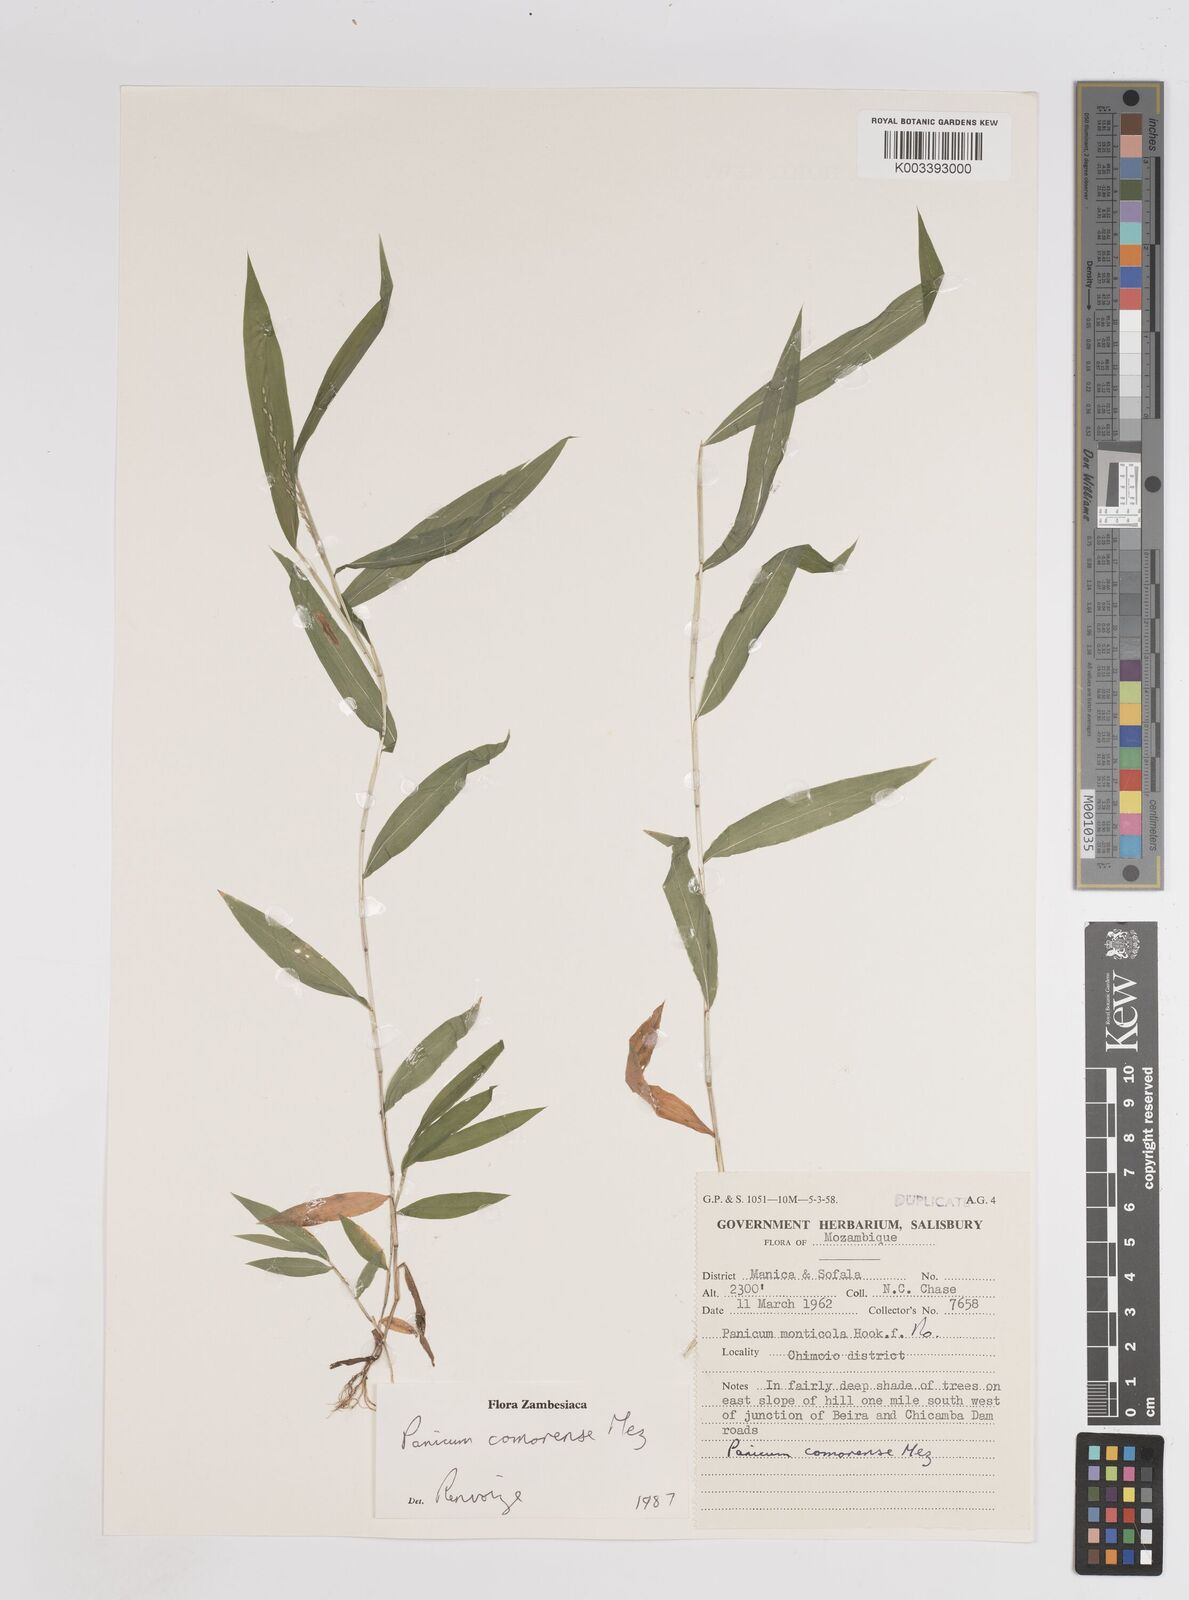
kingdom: Plantae
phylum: Tracheophyta
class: Liliopsida
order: Poales
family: Poaceae
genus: Panicum
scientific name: Panicum comorense
